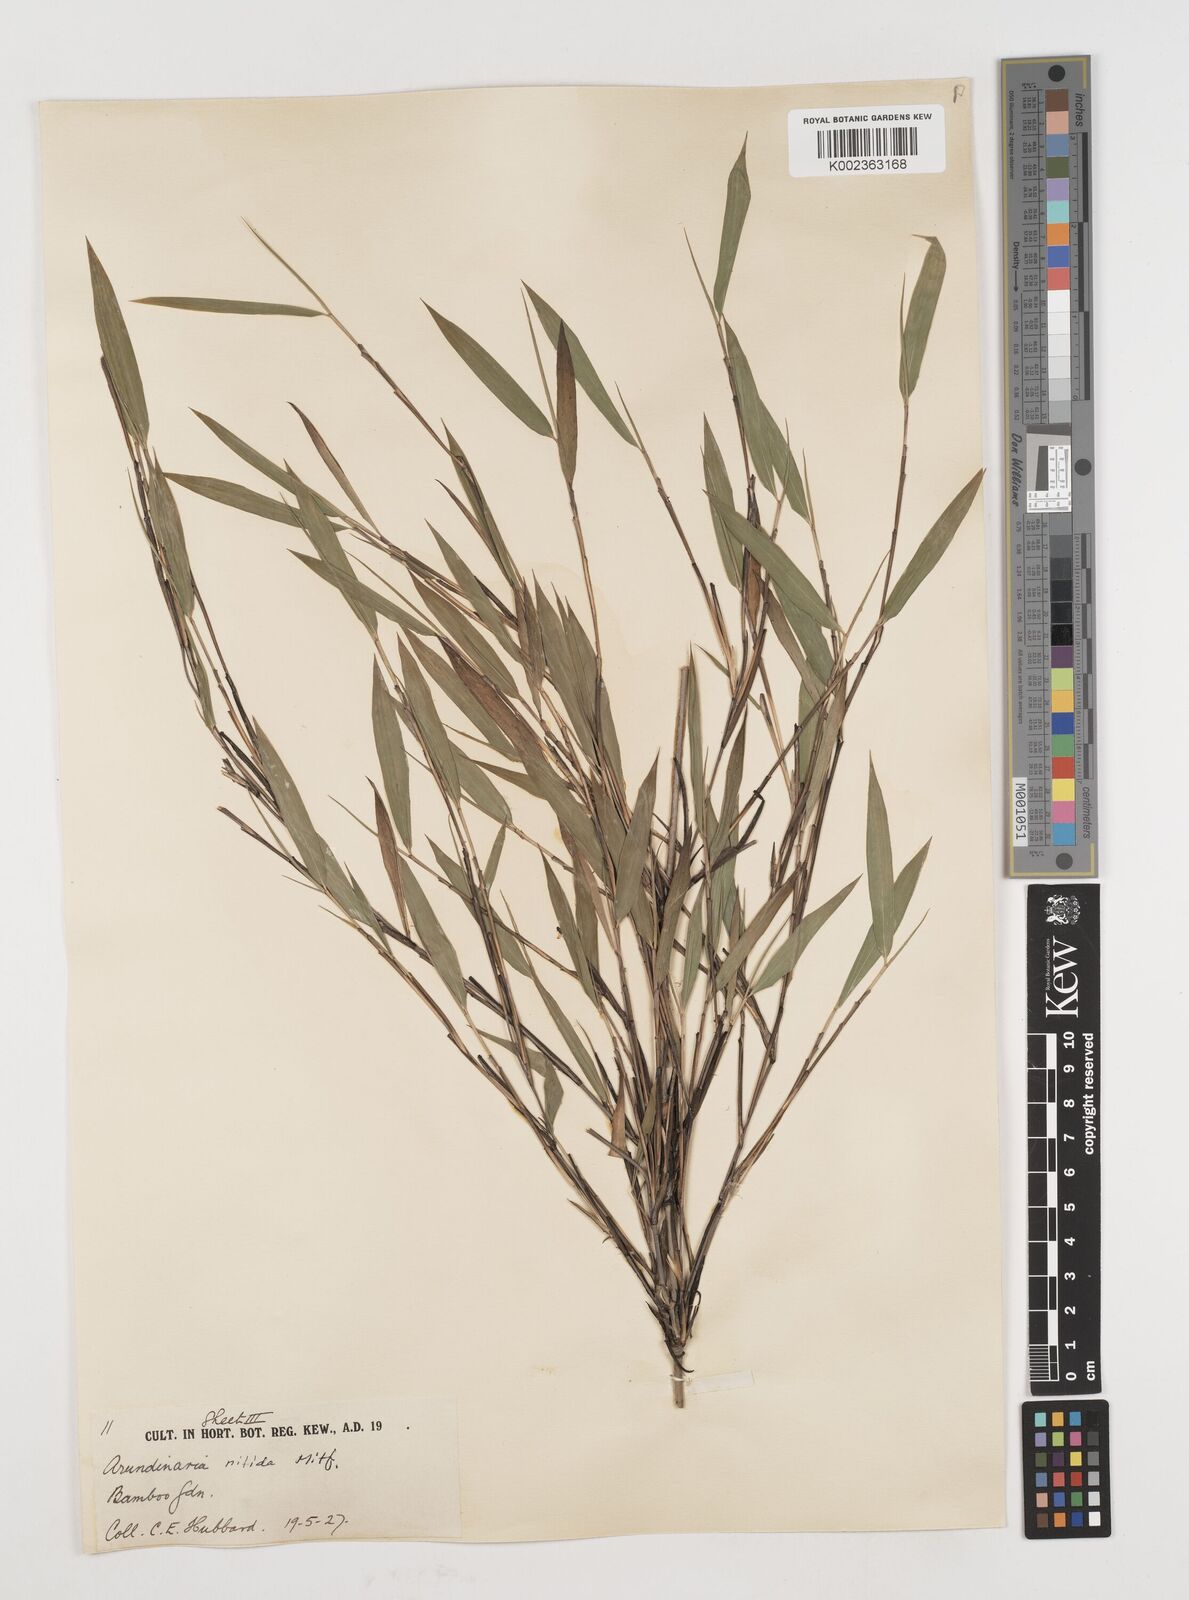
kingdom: Plantae
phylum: Tracheophyta
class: Liliopsida
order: Poales
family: Poaceae
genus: Fargesia
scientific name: Fargesia nitida ex
